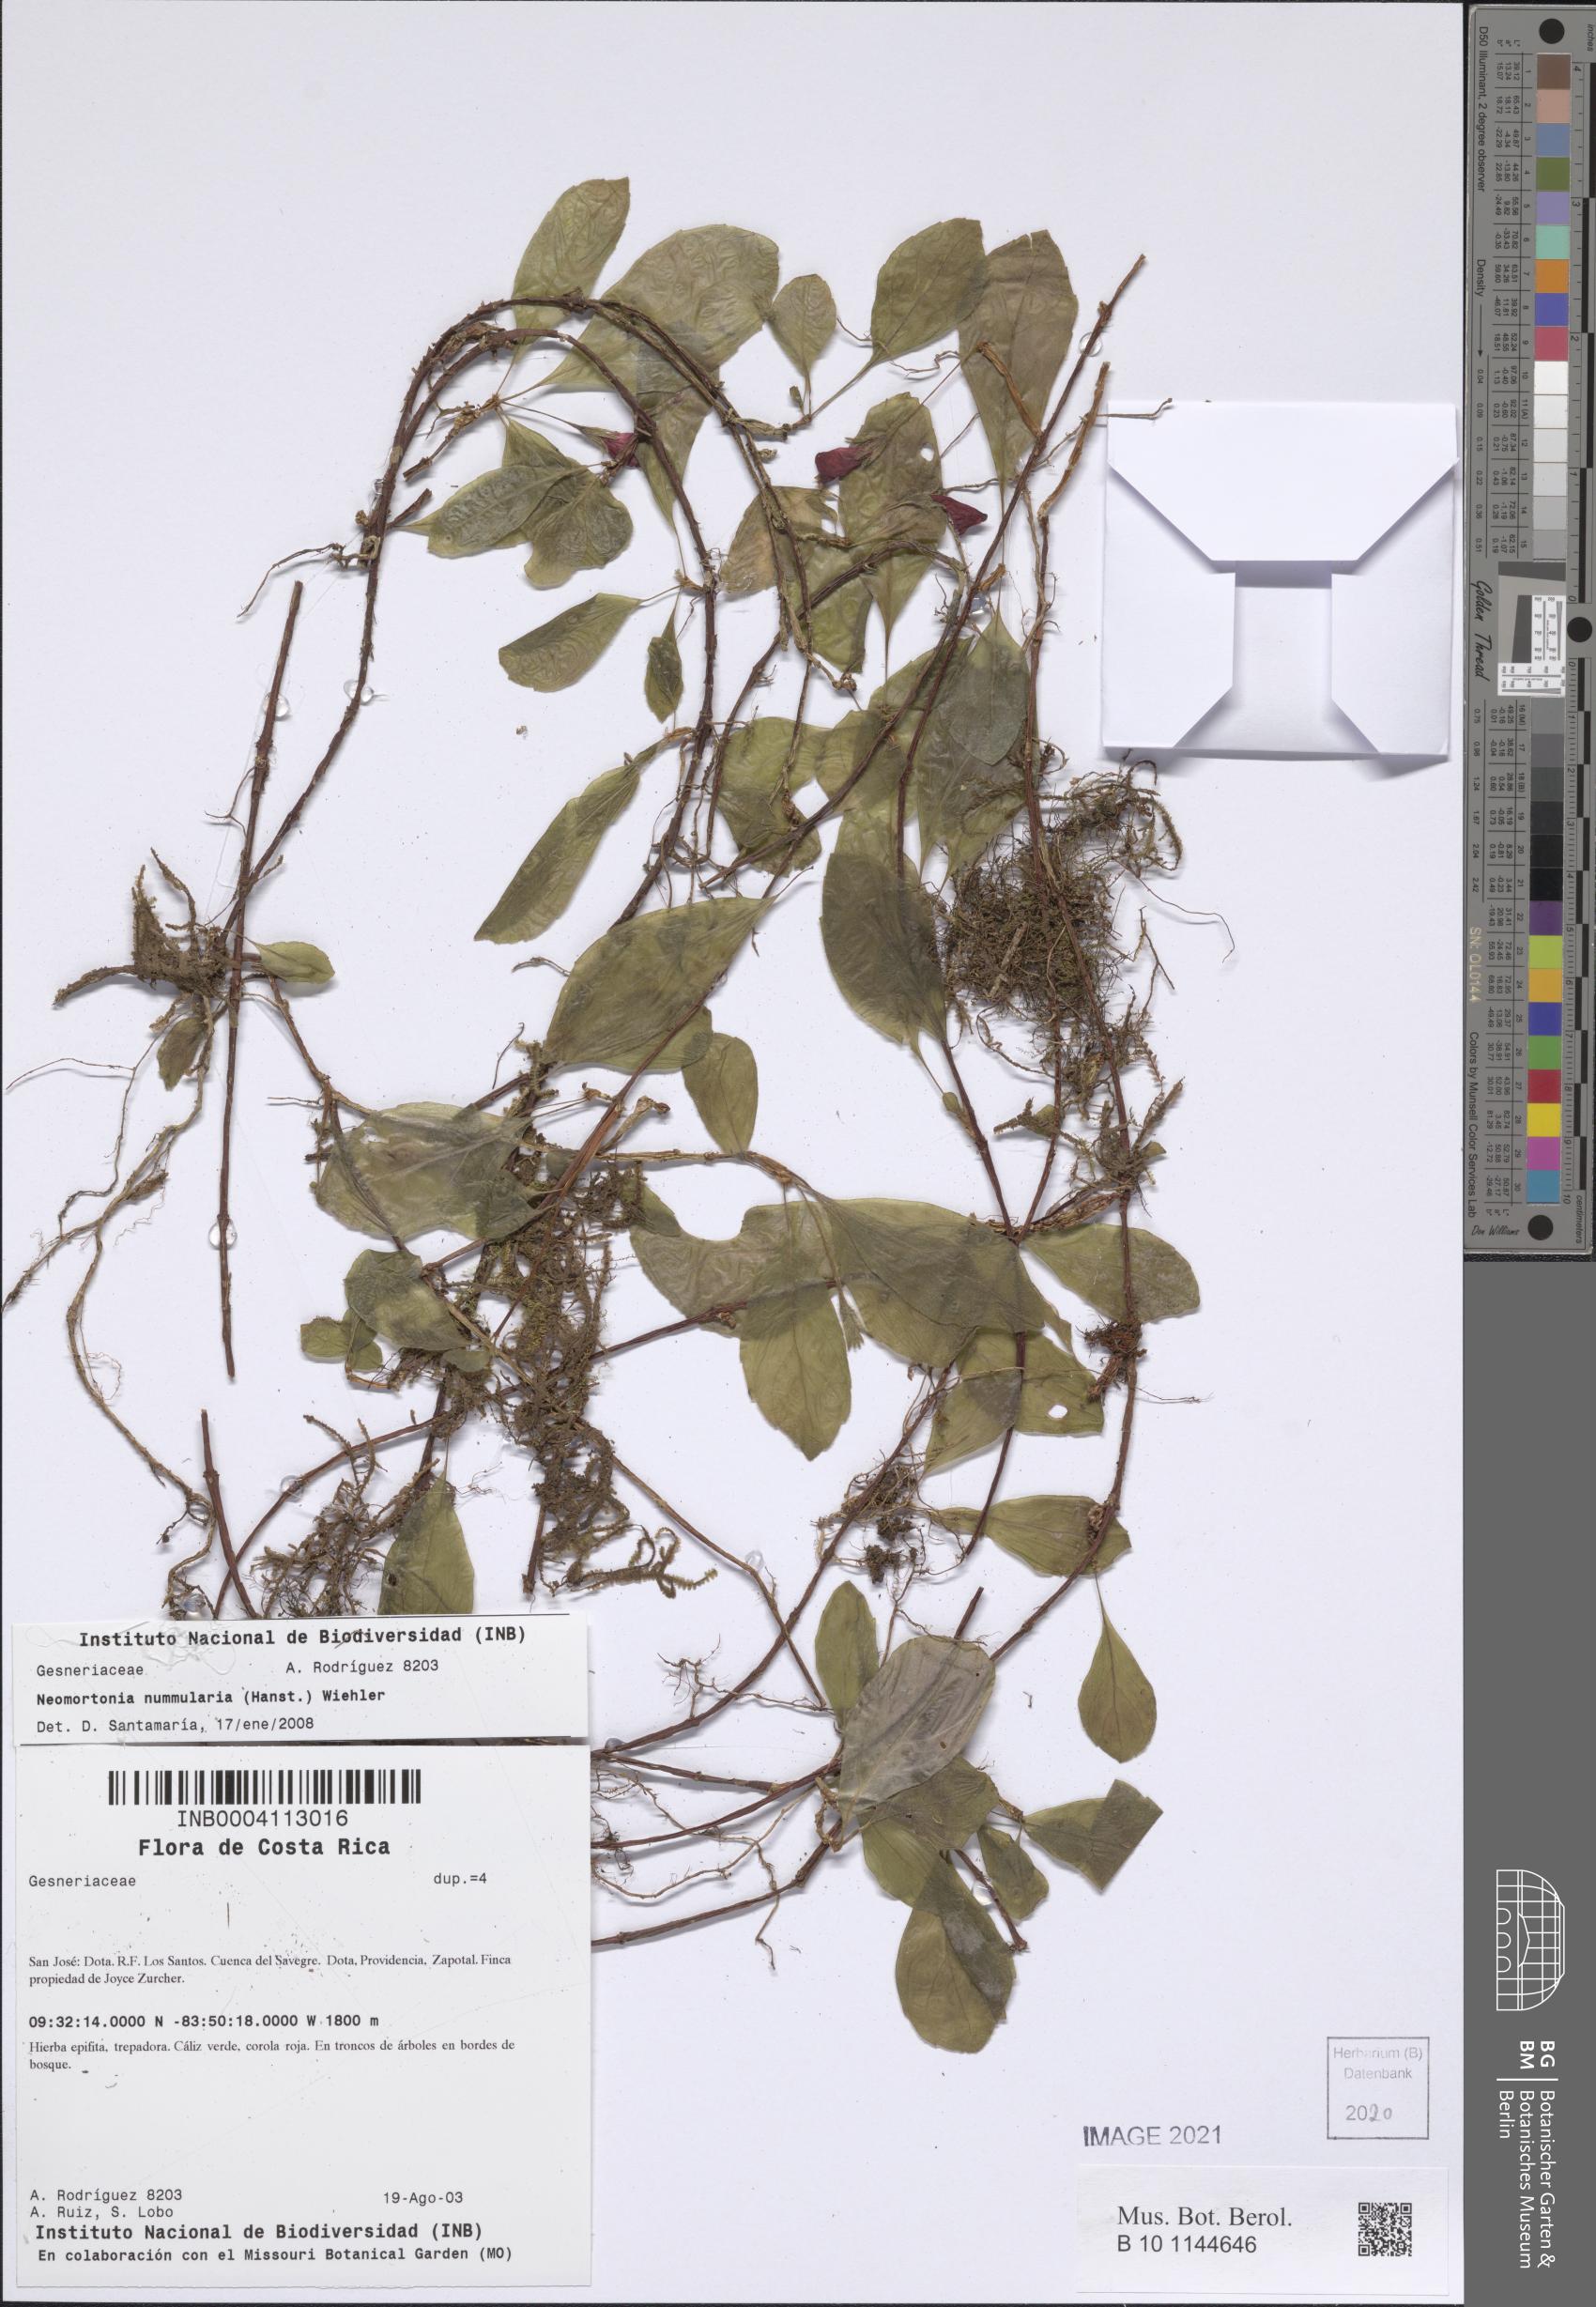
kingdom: Plantae
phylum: Tracheophyta
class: Magnoliopsida
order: Lamiales
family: Gesneriaceae
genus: Pachycaulos
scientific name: Pachycaulos nummularia
